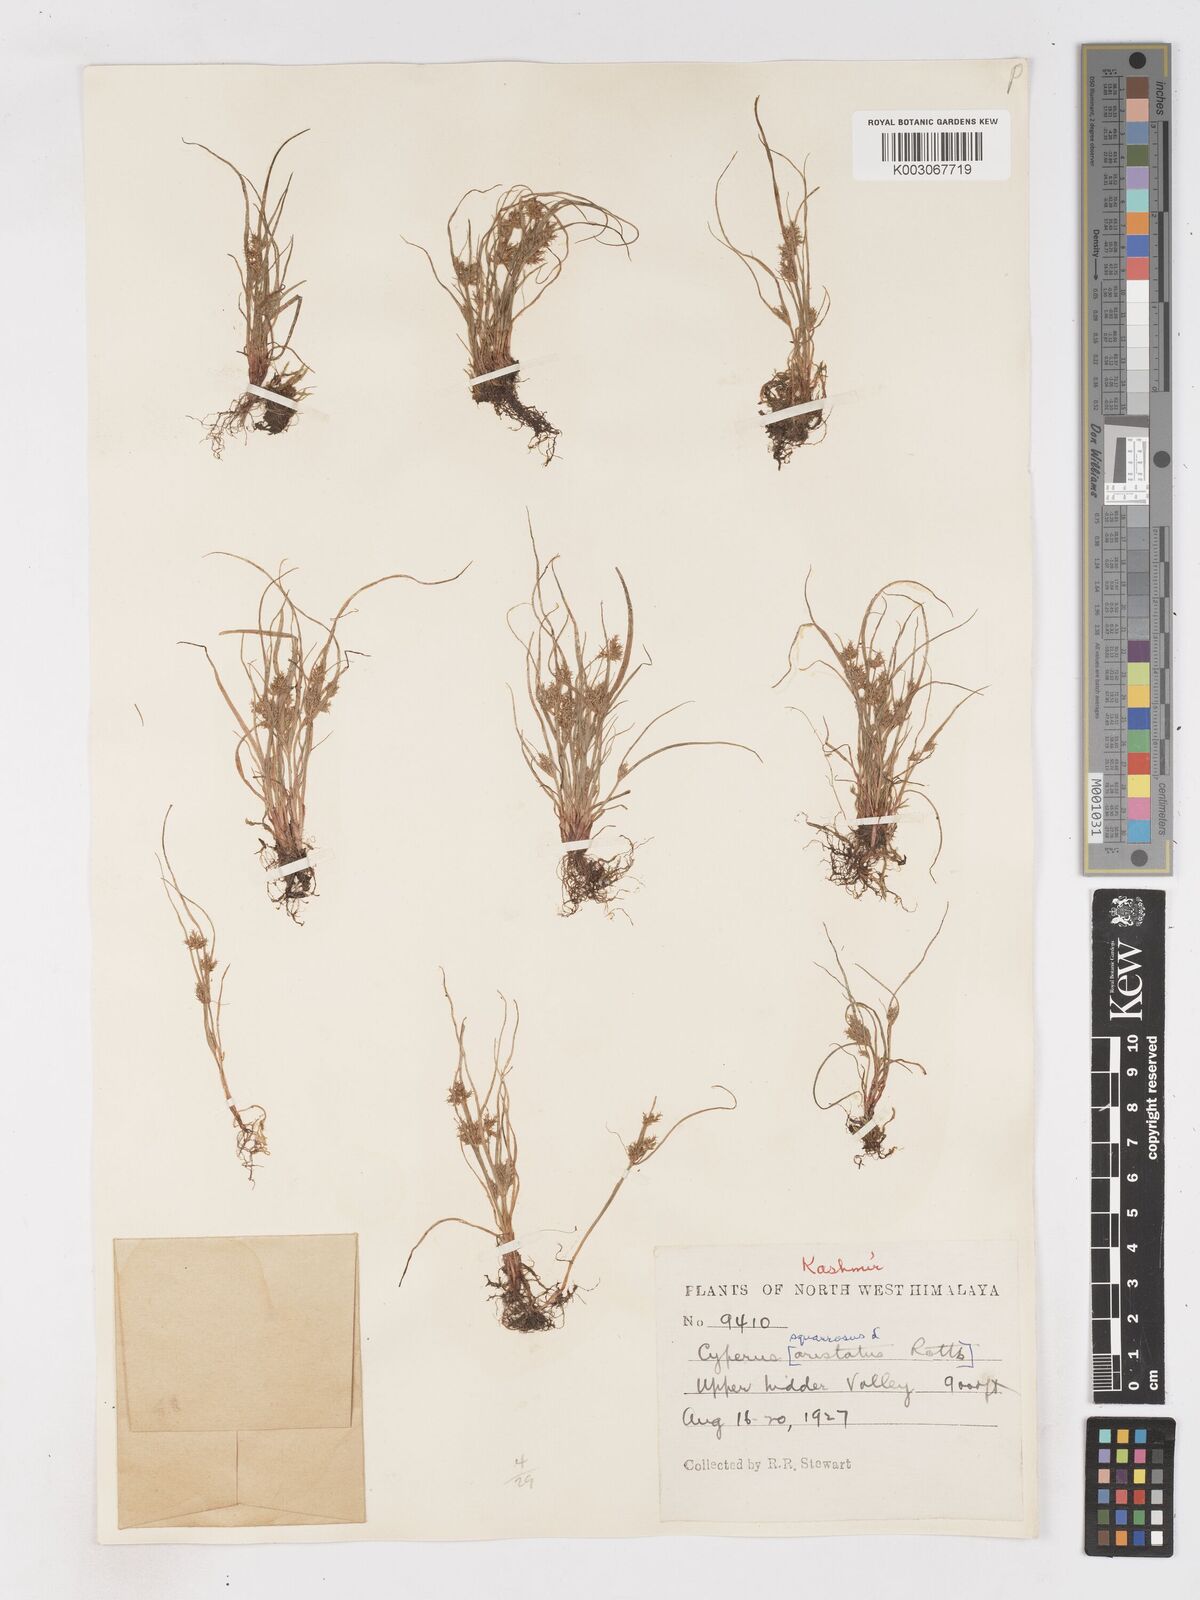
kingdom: Plantae
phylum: Tracheophyta
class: Liliopsida
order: Poales
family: Cyperaceae
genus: Cyperus
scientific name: Cyperus squarrosus
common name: Awned cyperus
